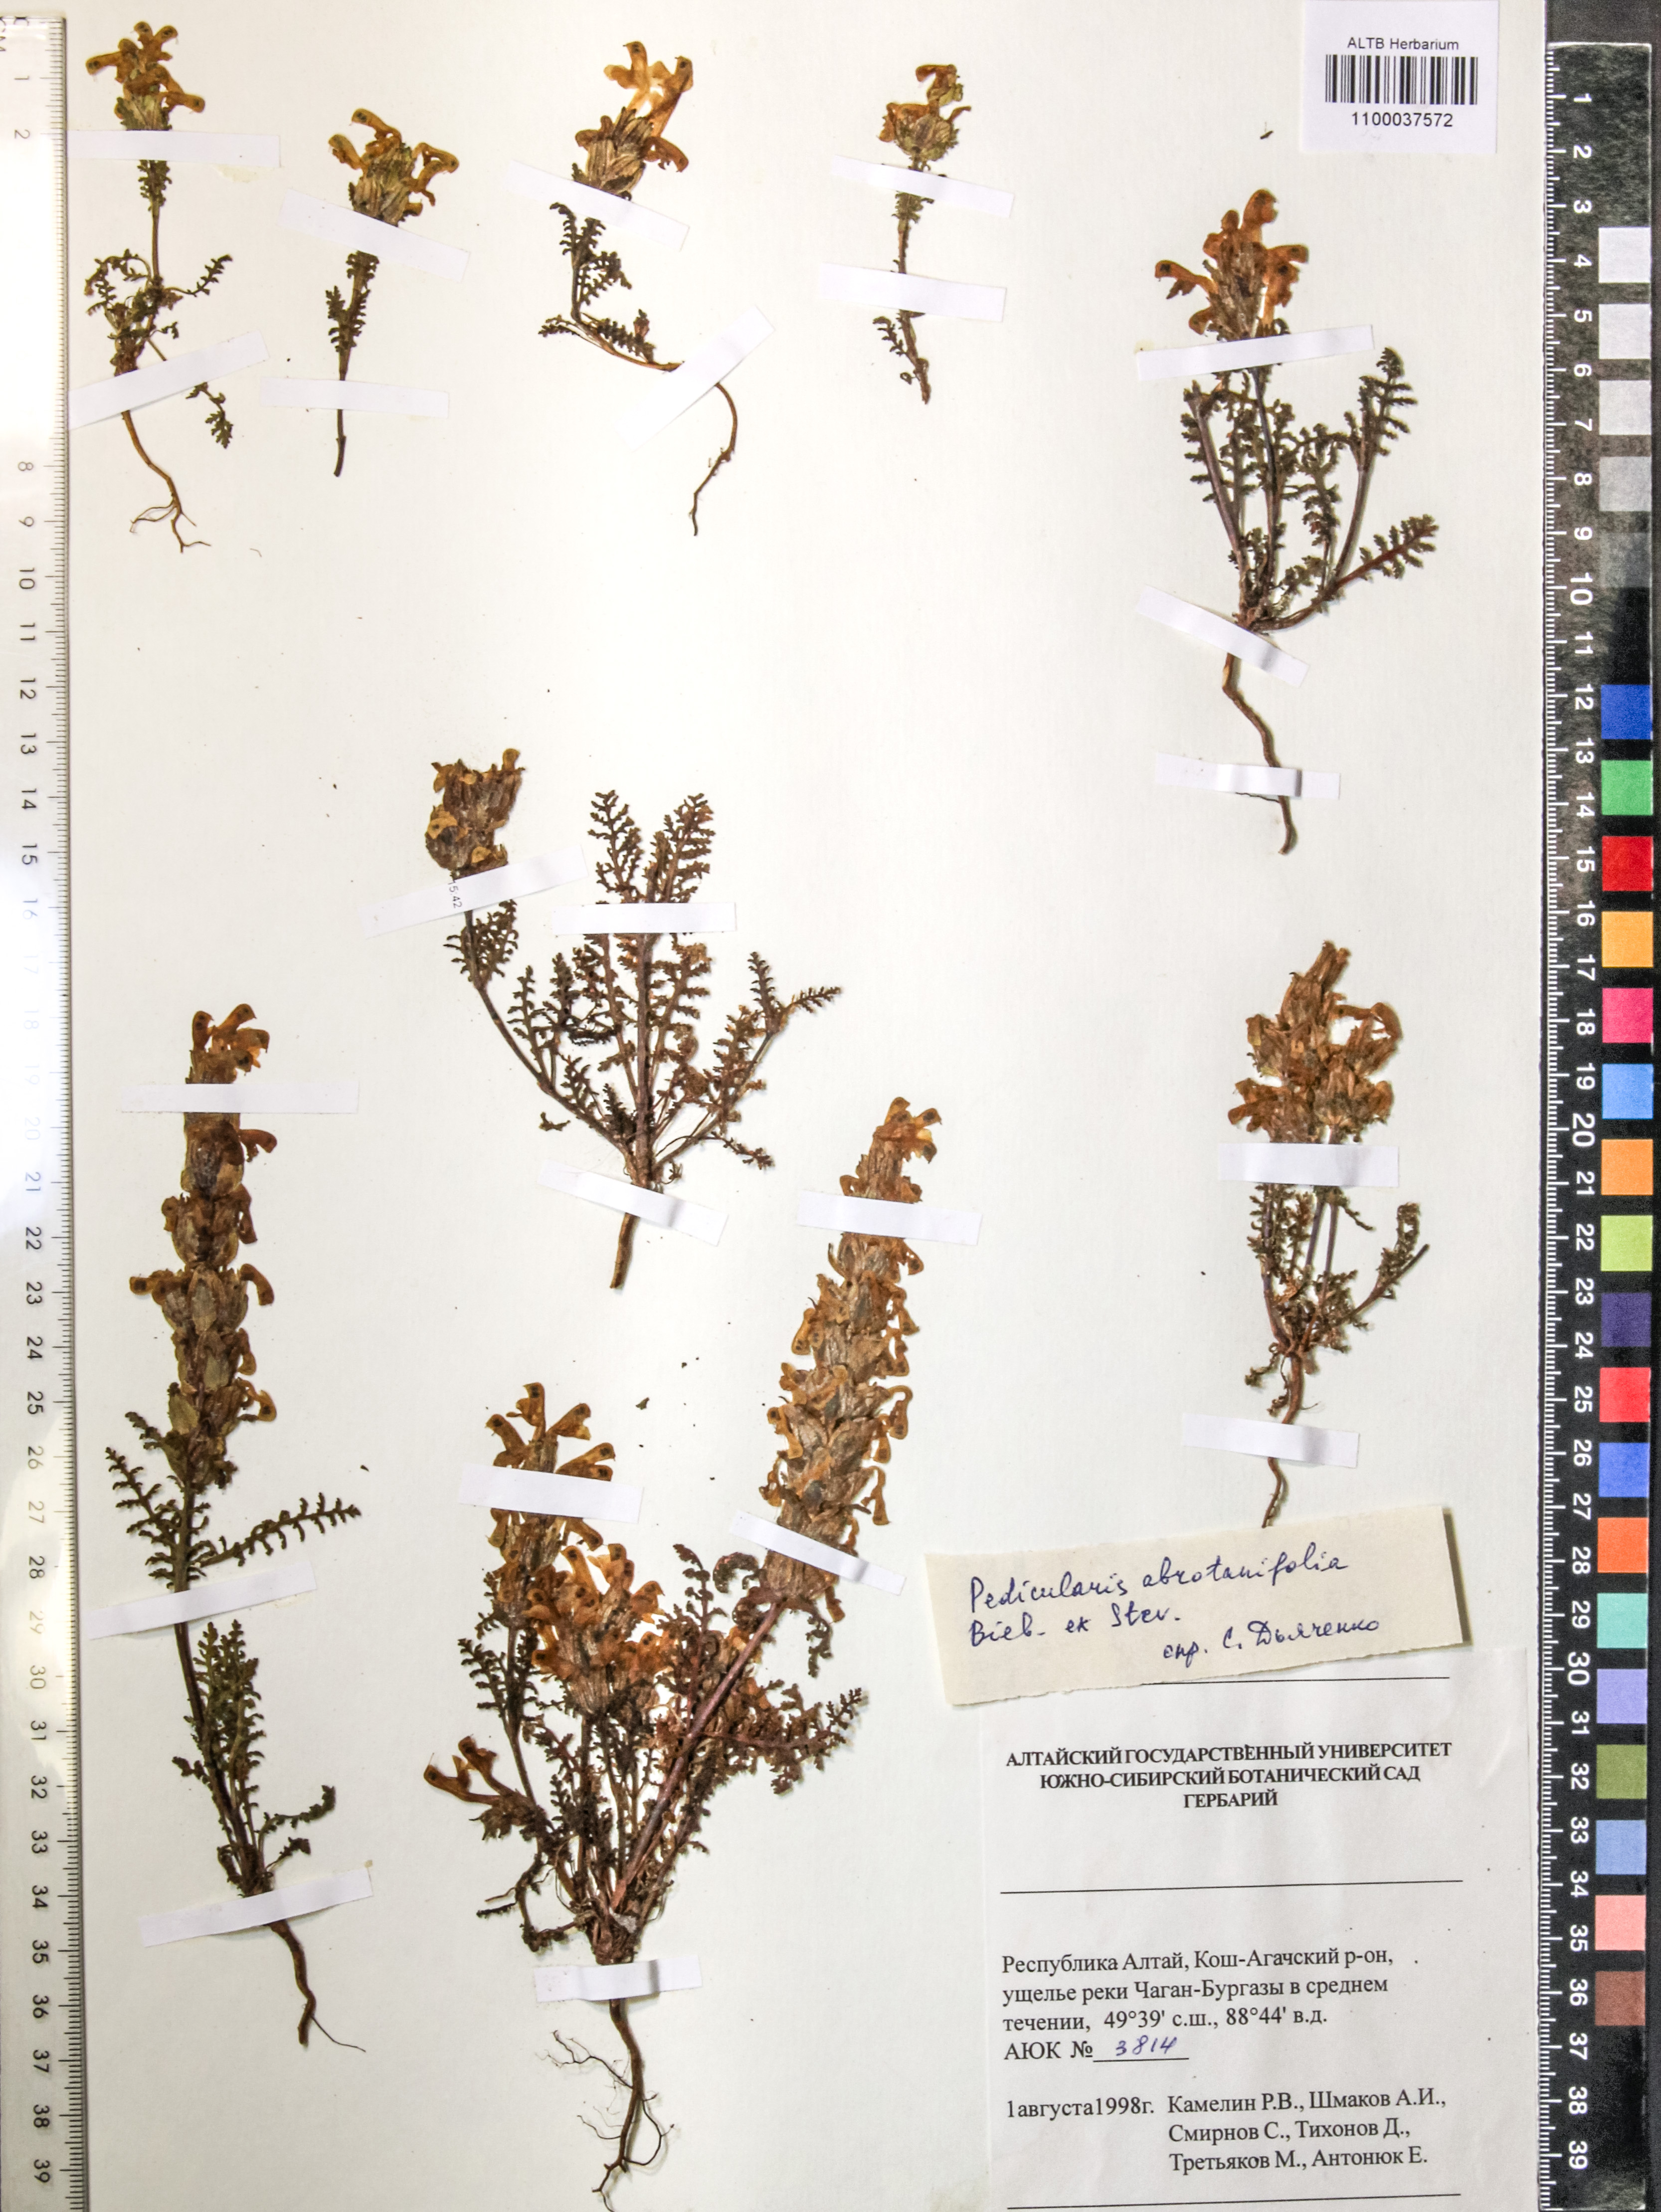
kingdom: Plantae
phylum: Tracheophyta
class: Magnoliopsida
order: Lamiales
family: Orobanchaceae
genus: Pedicularis
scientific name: Pedicularis abrotanifolia
